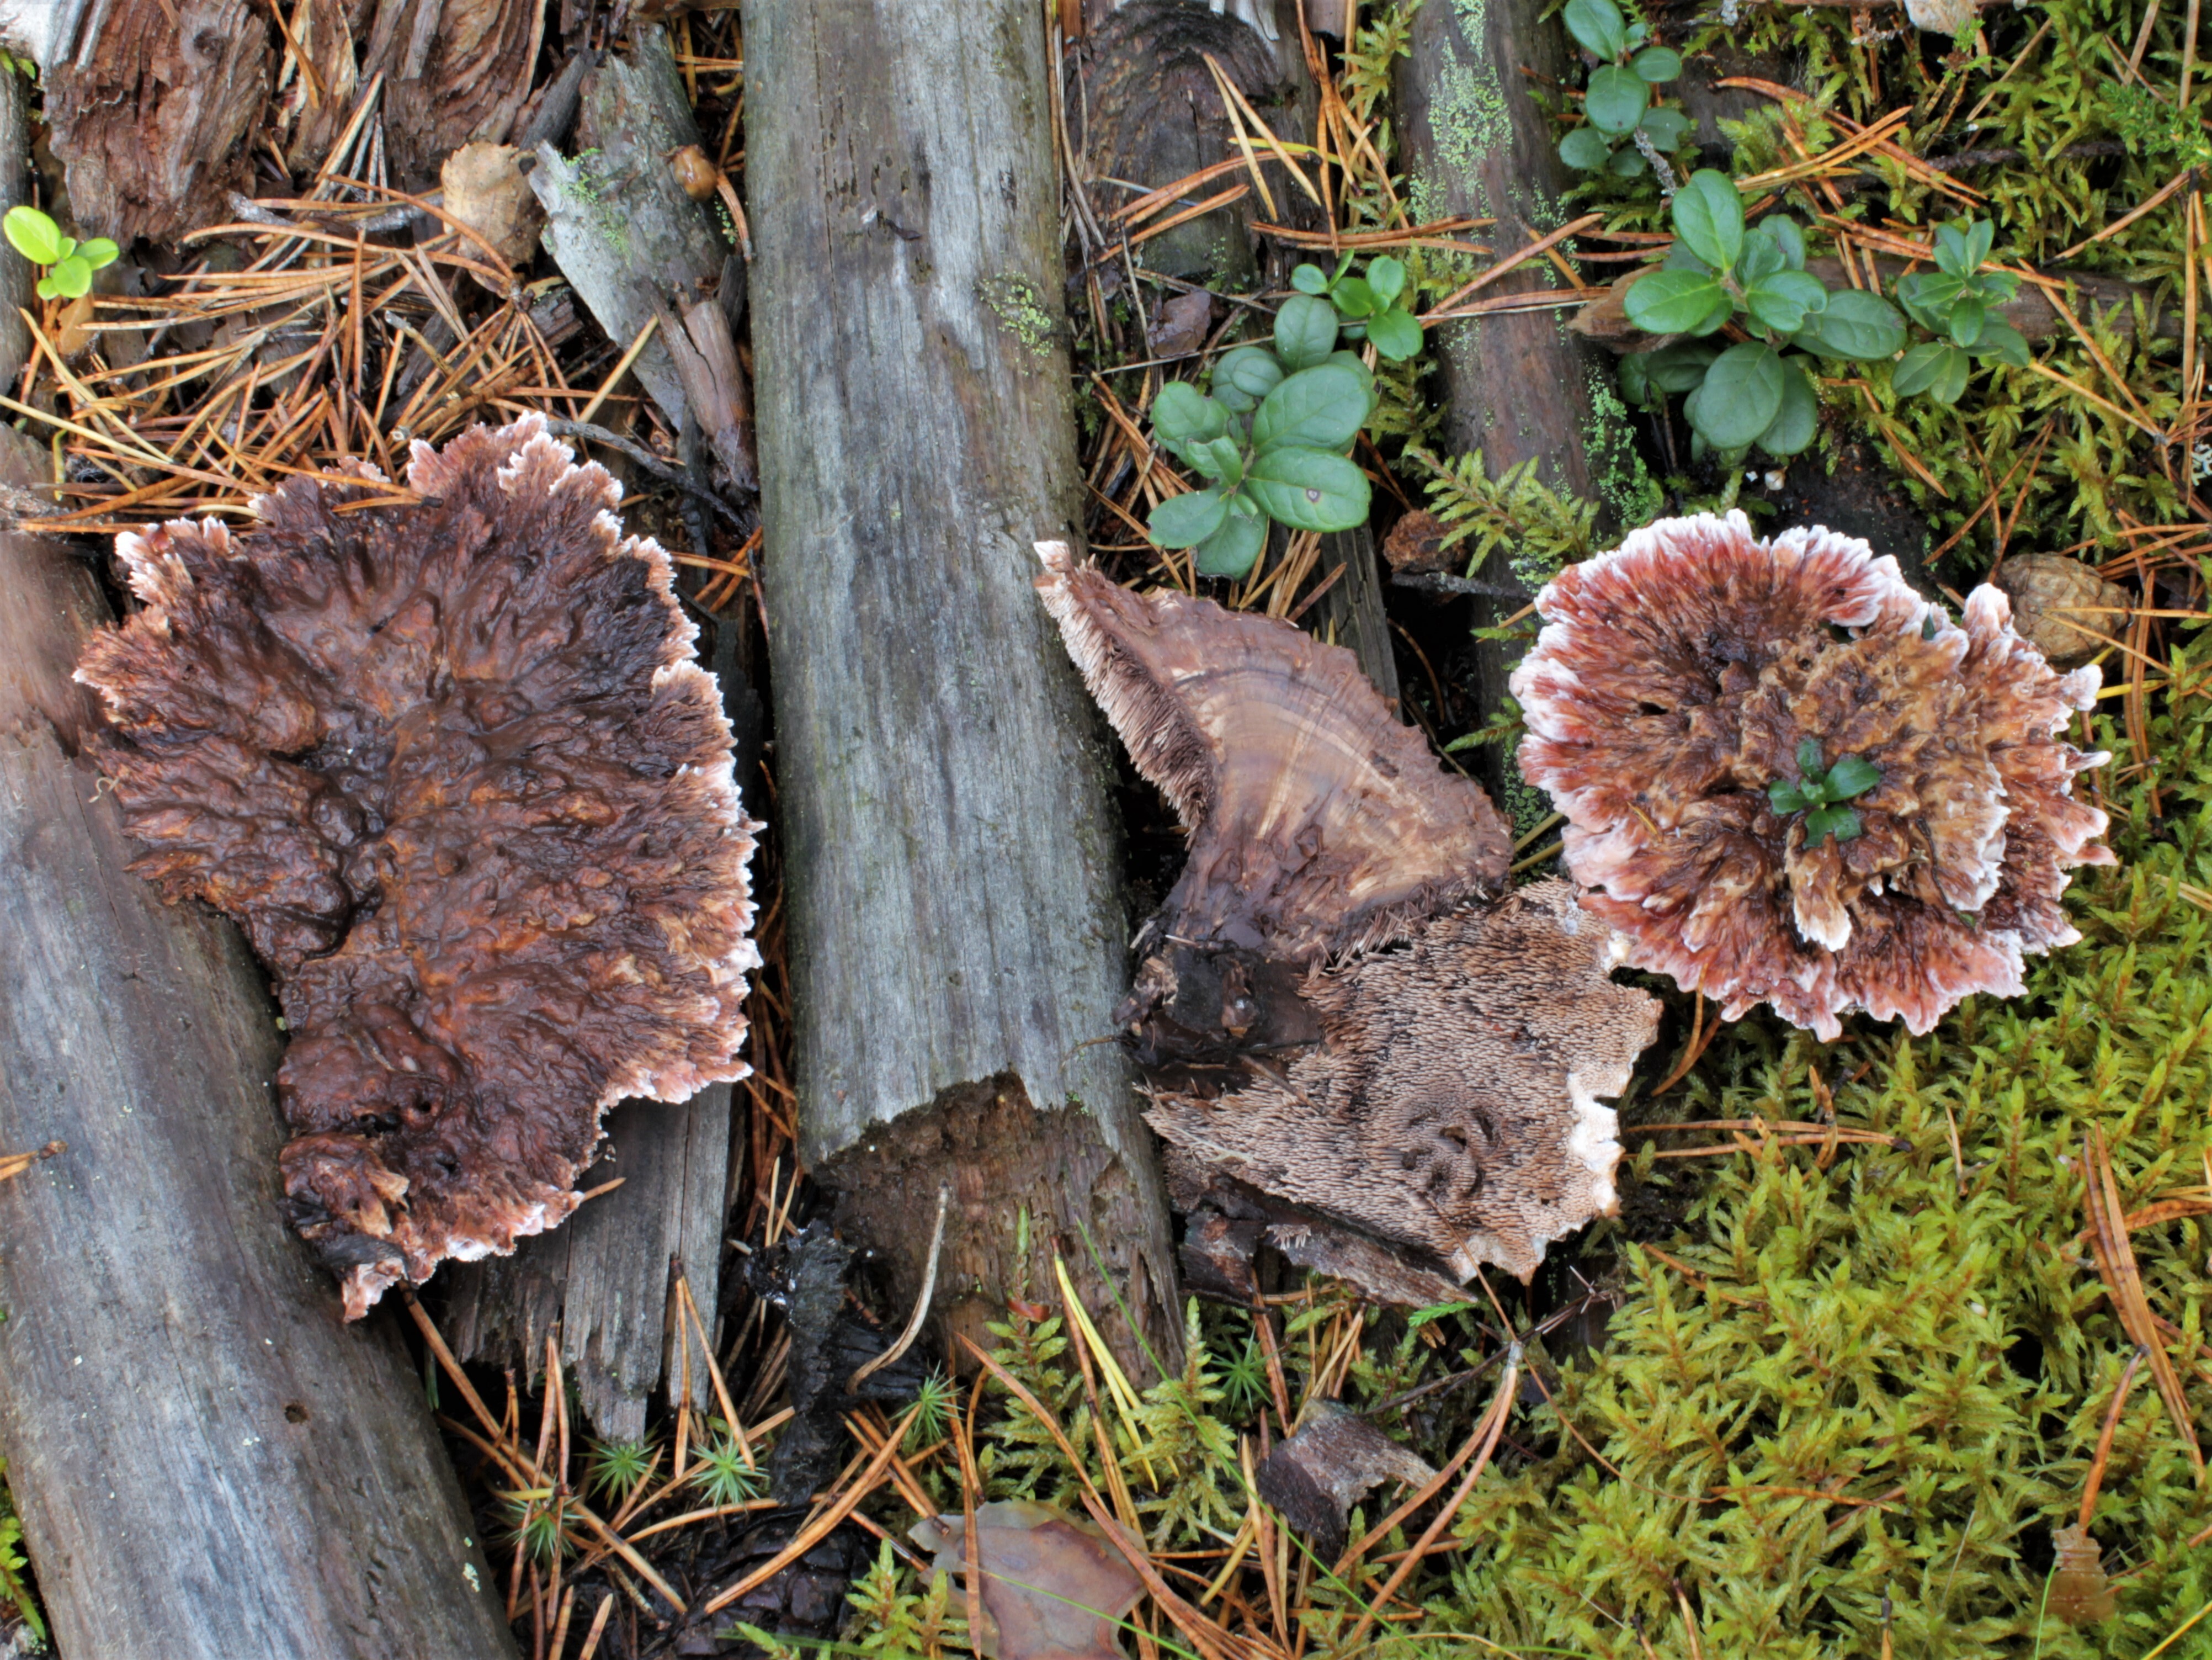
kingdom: Fungi
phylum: Basidiomycota
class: Agaricomycetes
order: Thelephorales
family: Bankeraceae
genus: Hydnellum
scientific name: Hydnellum peckii
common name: Devil's tooth
